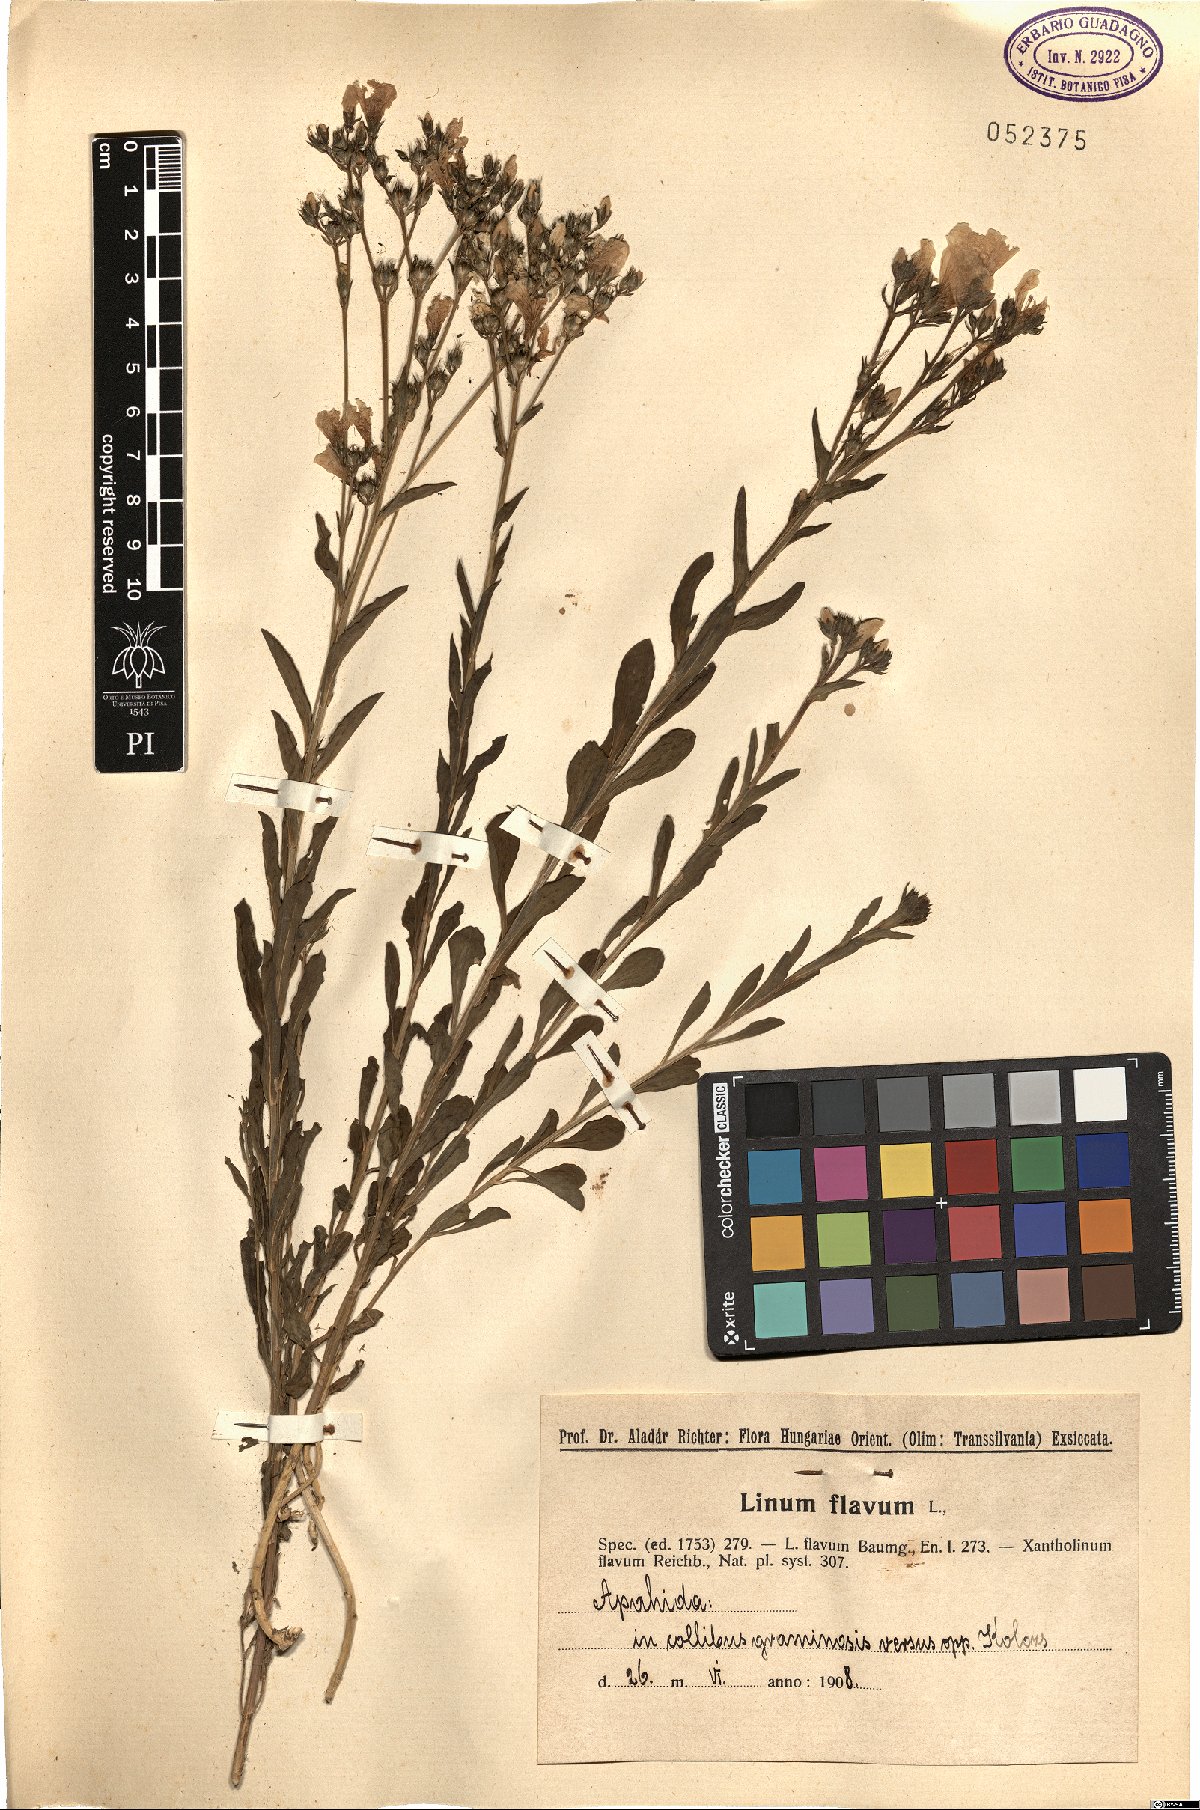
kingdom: Plantae
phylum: Tracheophyta
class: Magnoliopsida
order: Malpighiales
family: Linaceae
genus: Linum
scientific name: Linum flavum
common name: Yellow flax
